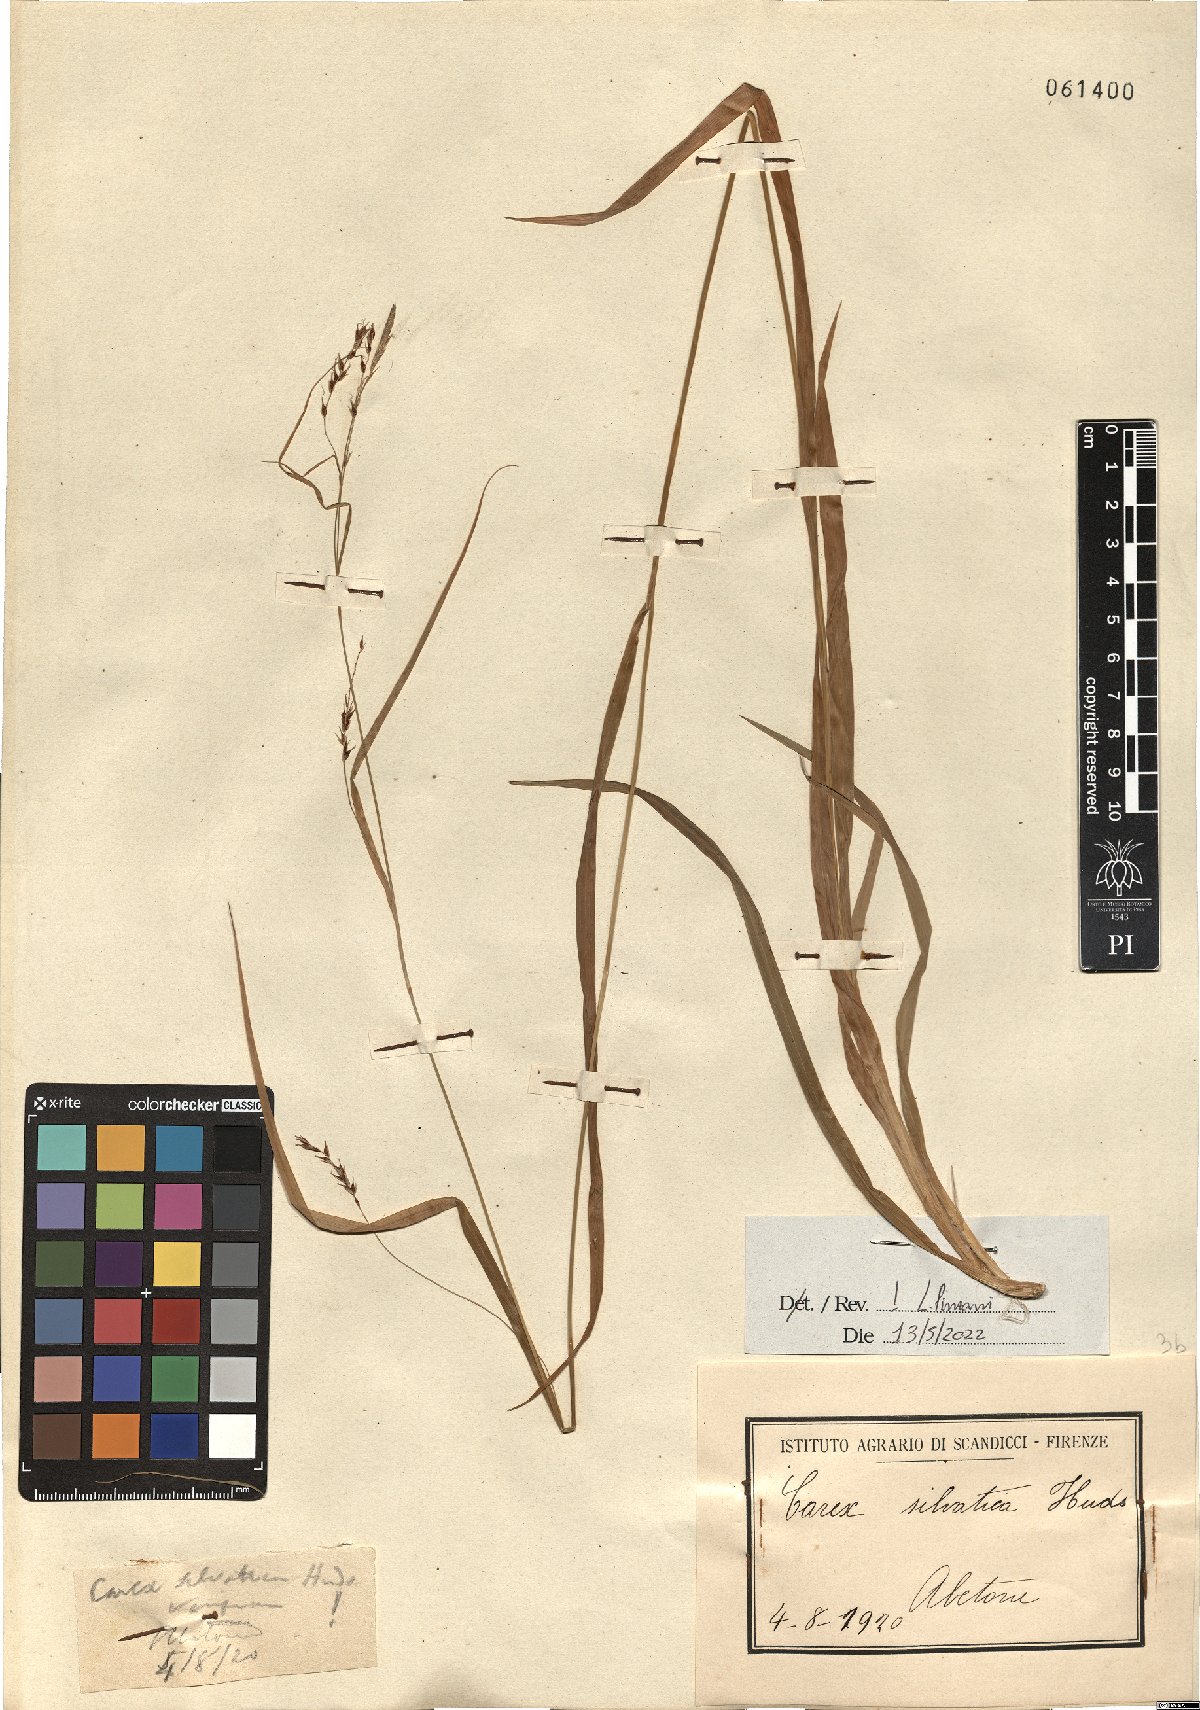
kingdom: Plantae
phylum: Tracheophyta
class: Liliopsida
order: Poales
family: Cyperaceae
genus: Carex
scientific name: Carex sylvatica
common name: Wood-sedge
